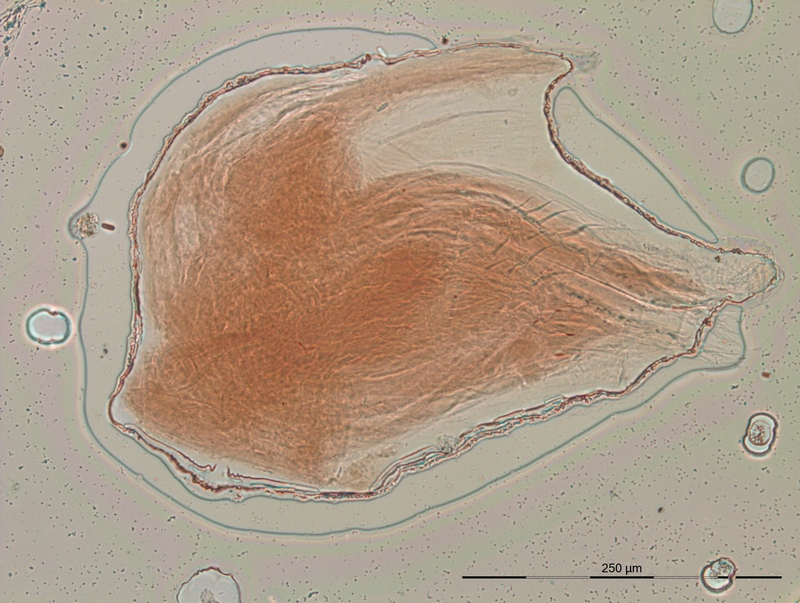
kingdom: Animalia
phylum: Arthropoda
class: Diplopoda
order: Julida
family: Blaniulidae
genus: Blaniulus
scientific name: Blaniulus guttulatus
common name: Spotted snake millipede
